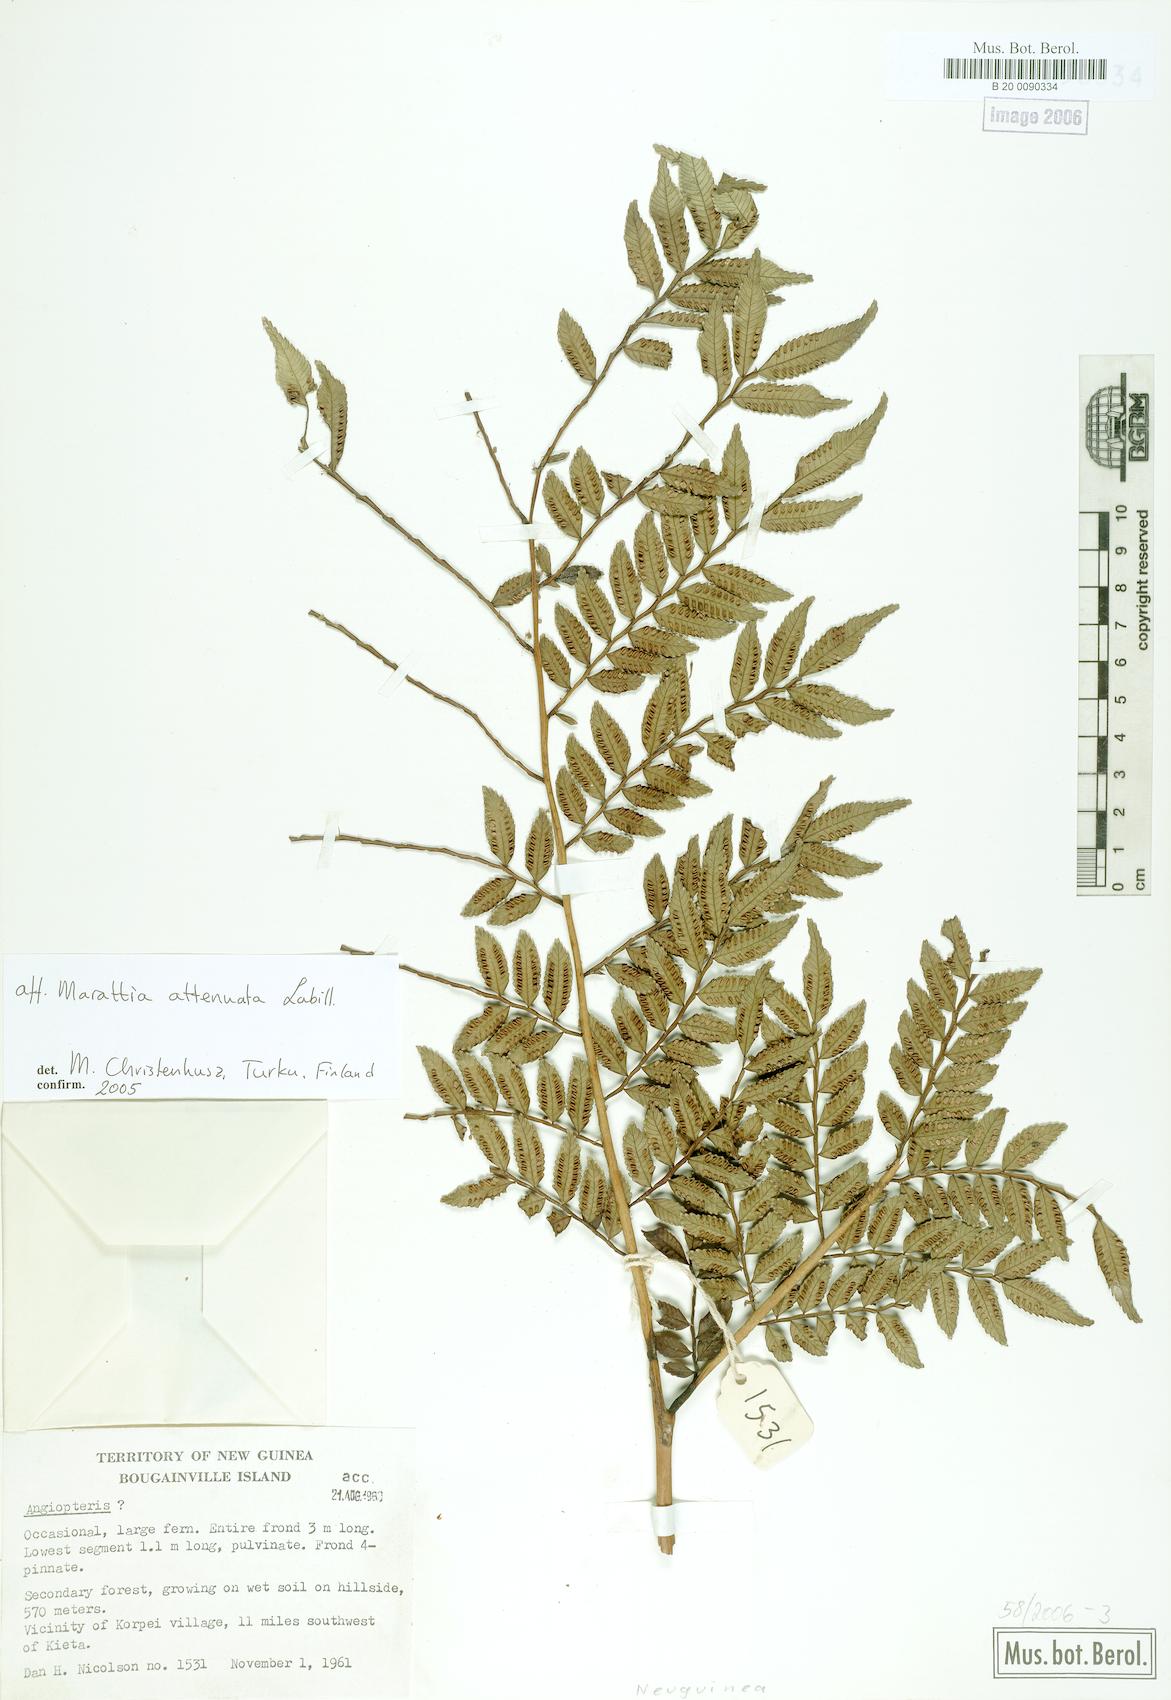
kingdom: Plantae
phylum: Tracheophyta
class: Polypodiopsida
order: Marattiales
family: Marattiaceae
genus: Ptisana
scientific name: Ptisana attenuata
